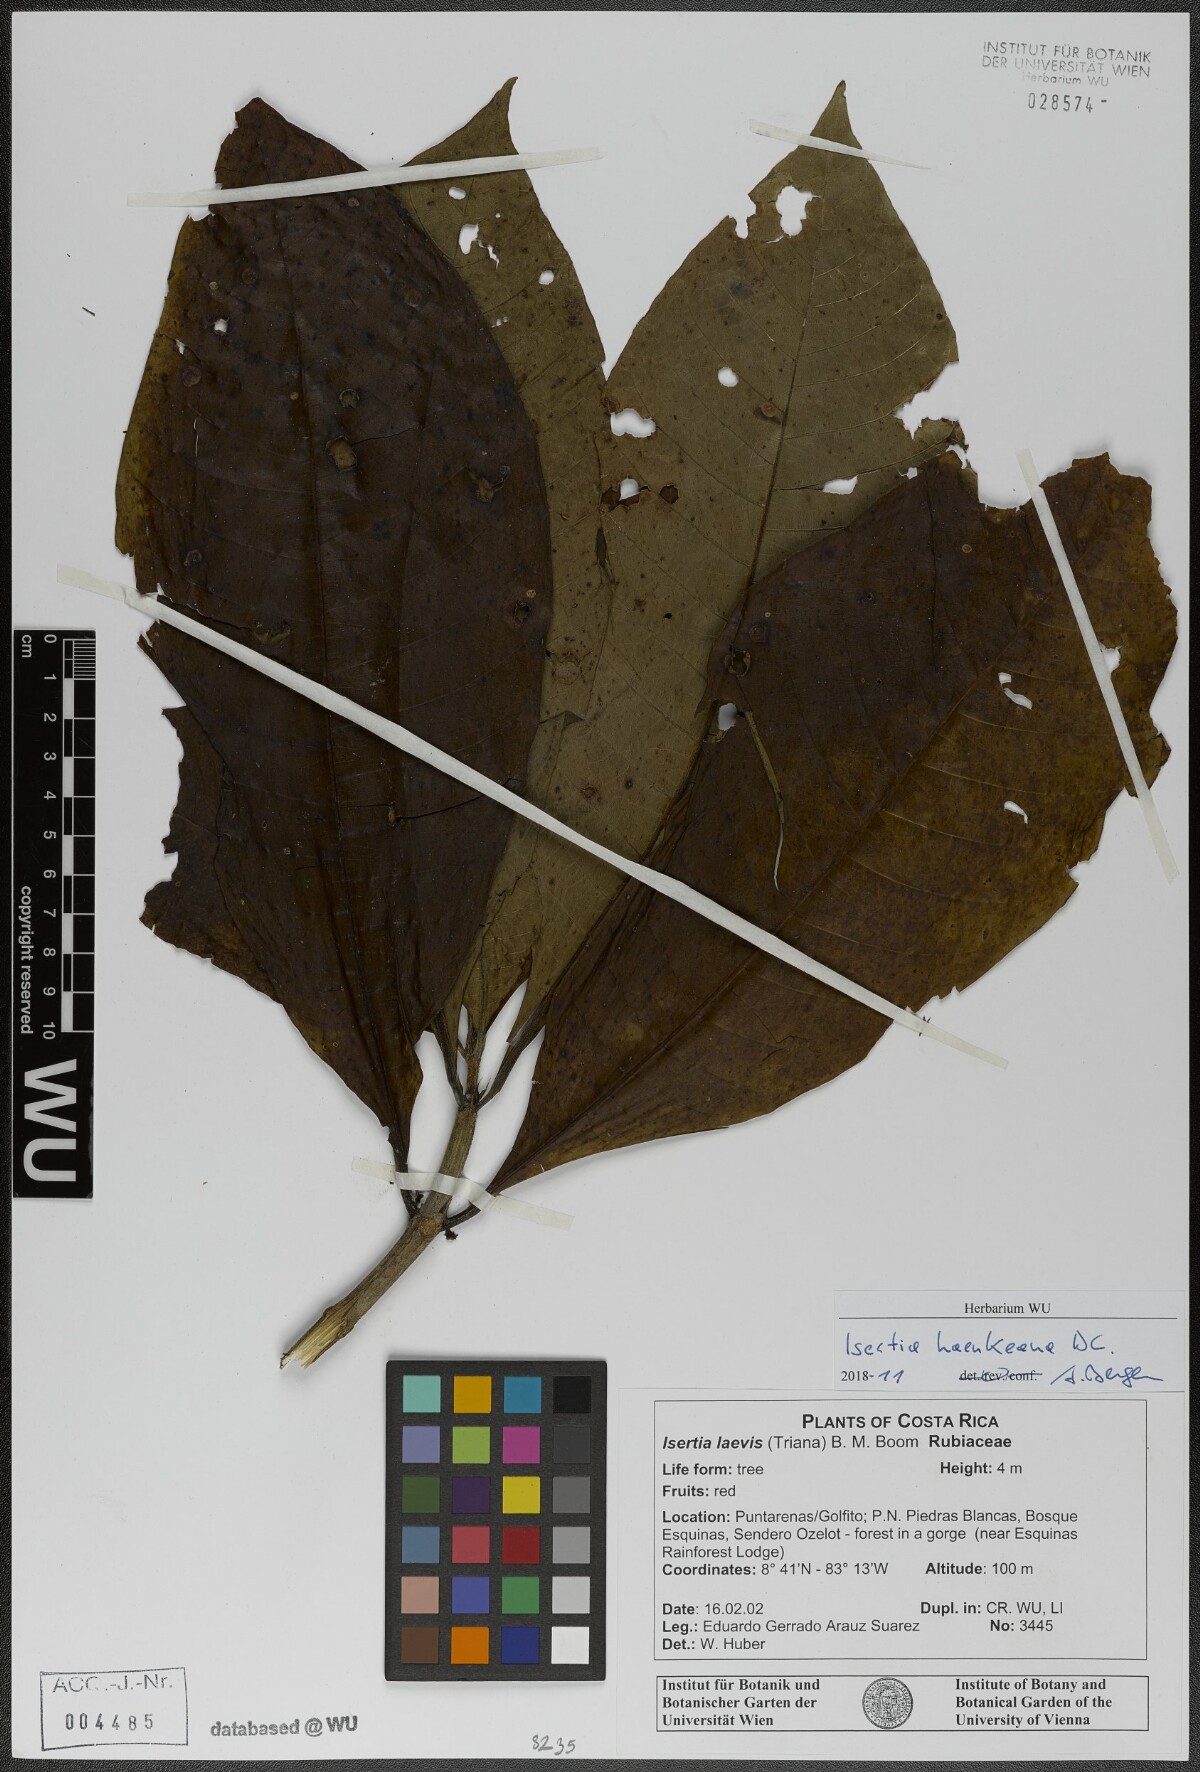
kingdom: Plantae
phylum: Tracheophyta
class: Magnoliopsida
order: Gentianales
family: Rubiaceae
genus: Isertia
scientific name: Isertia haenkeana
